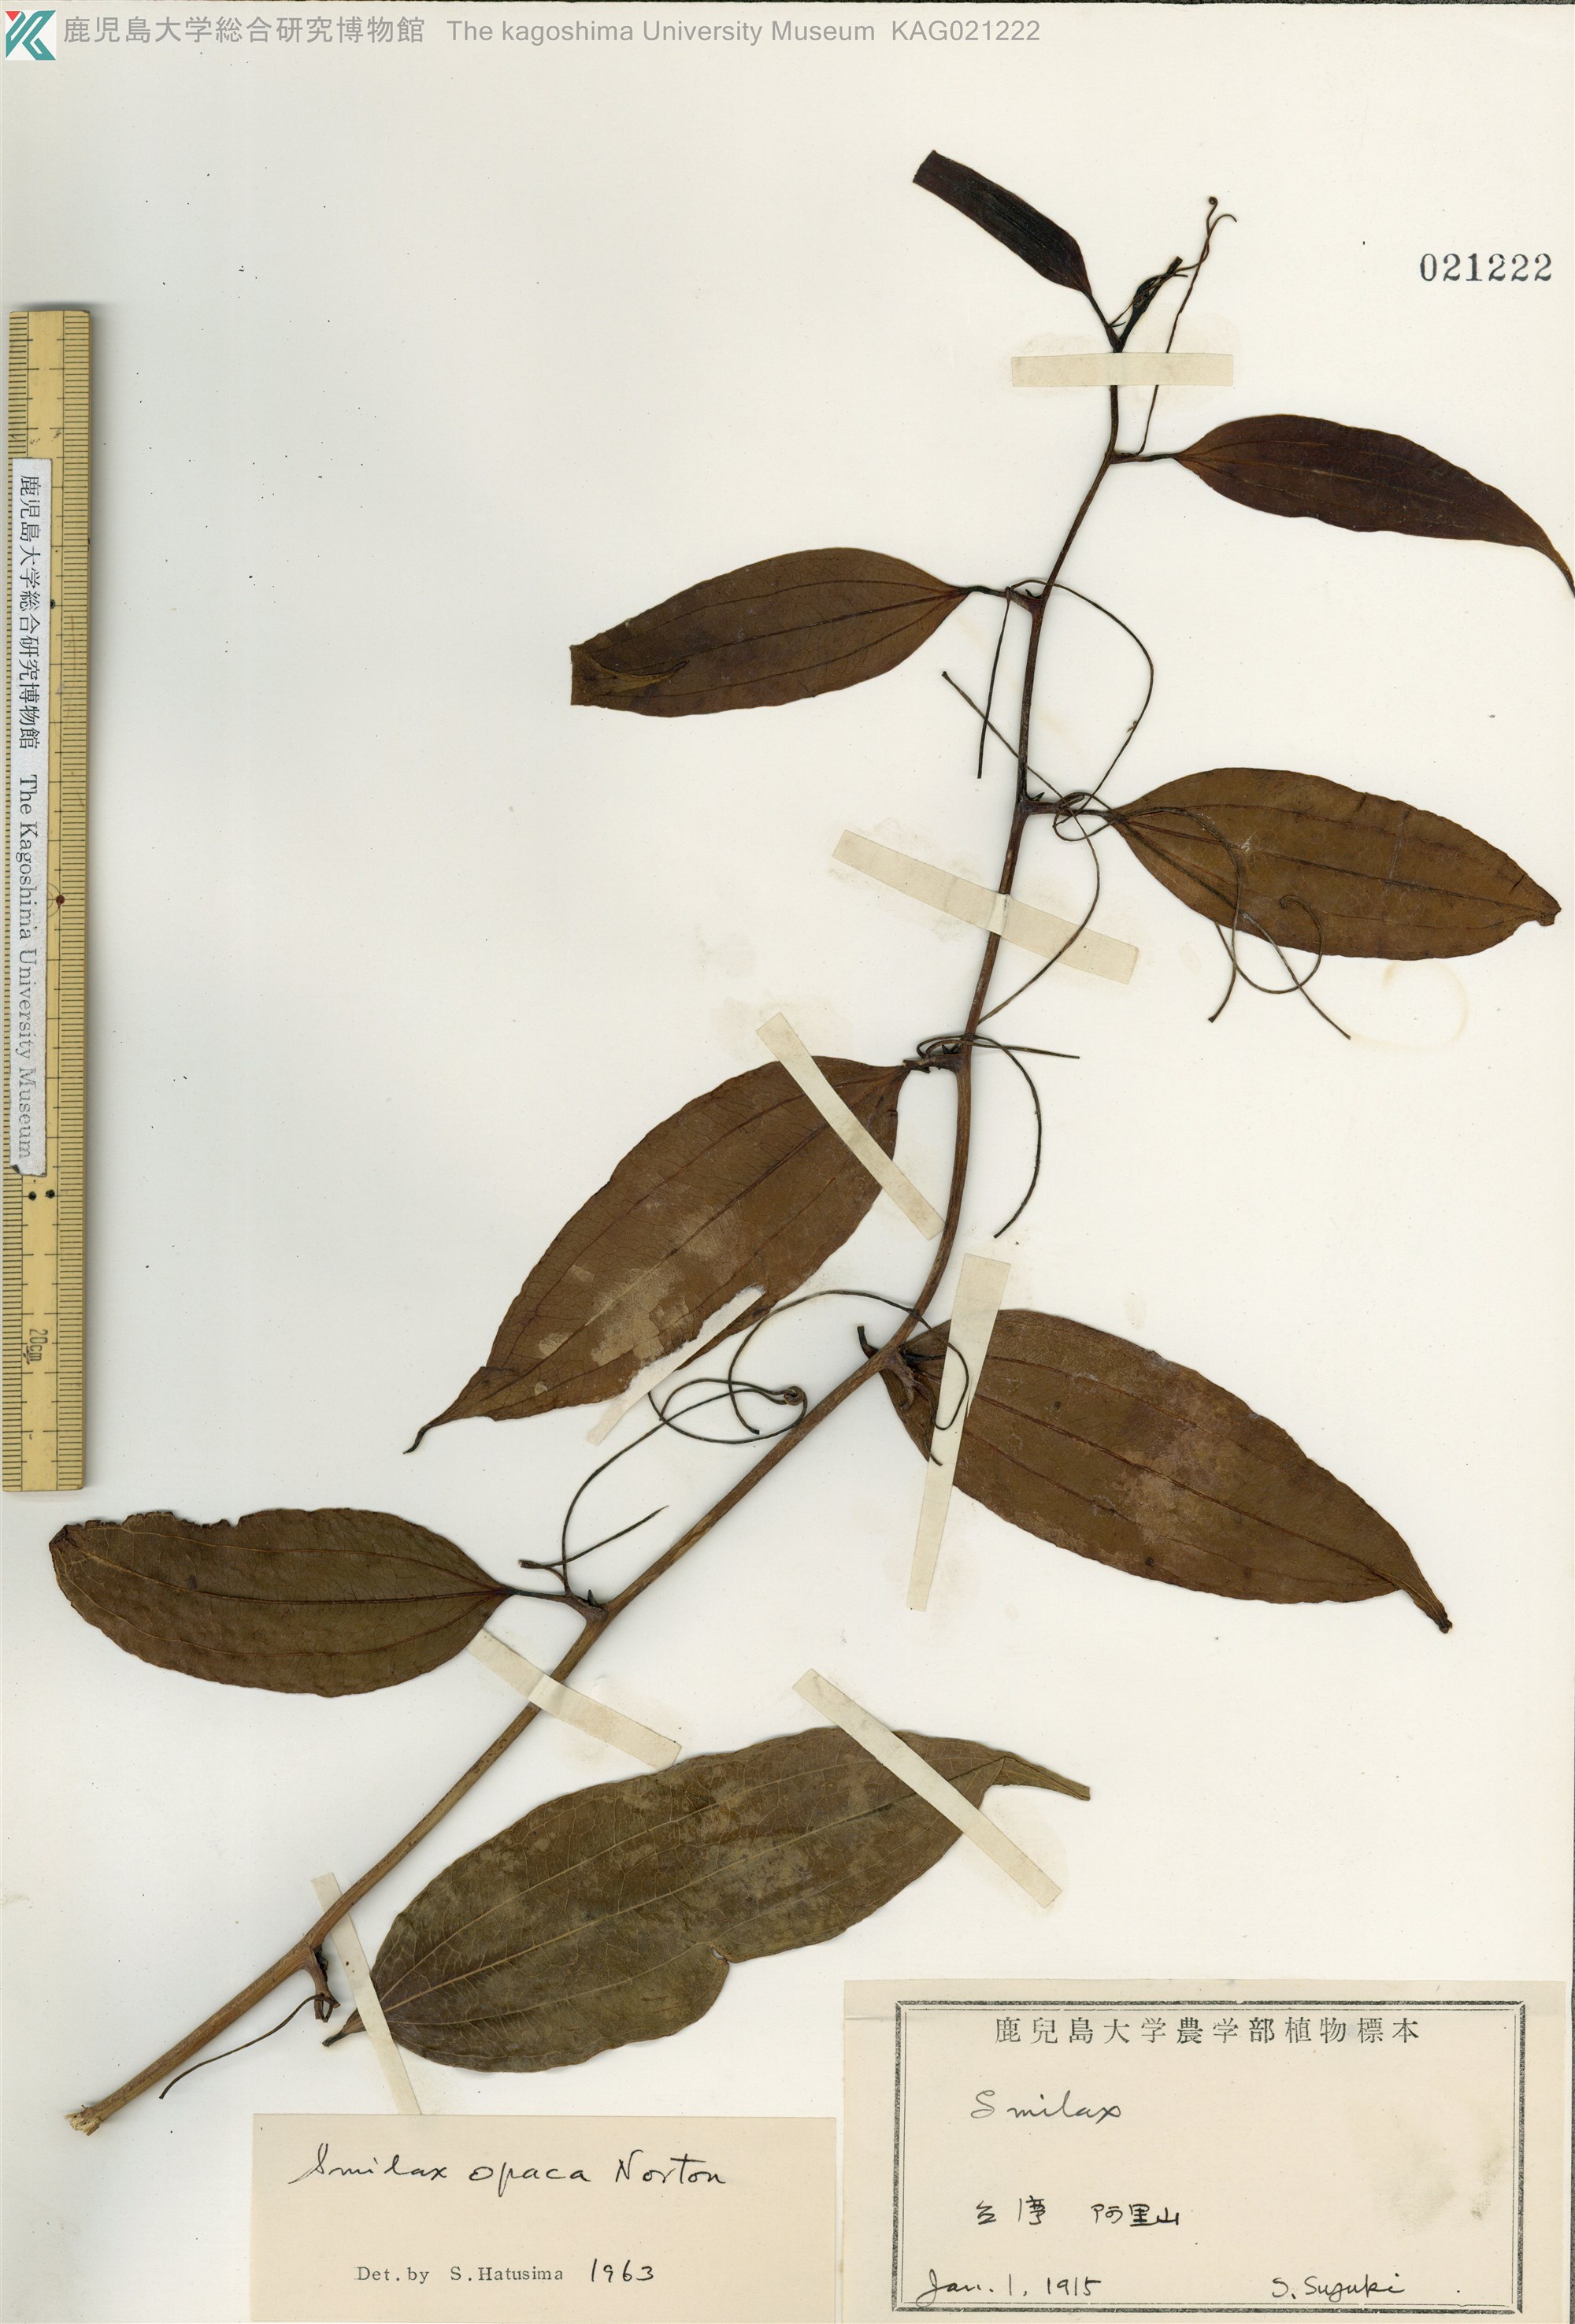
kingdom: Plantae
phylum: Tracheophyta
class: Liliopsida
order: Liliales
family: Smilacaceae
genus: Smilax
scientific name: Smilax laevis
